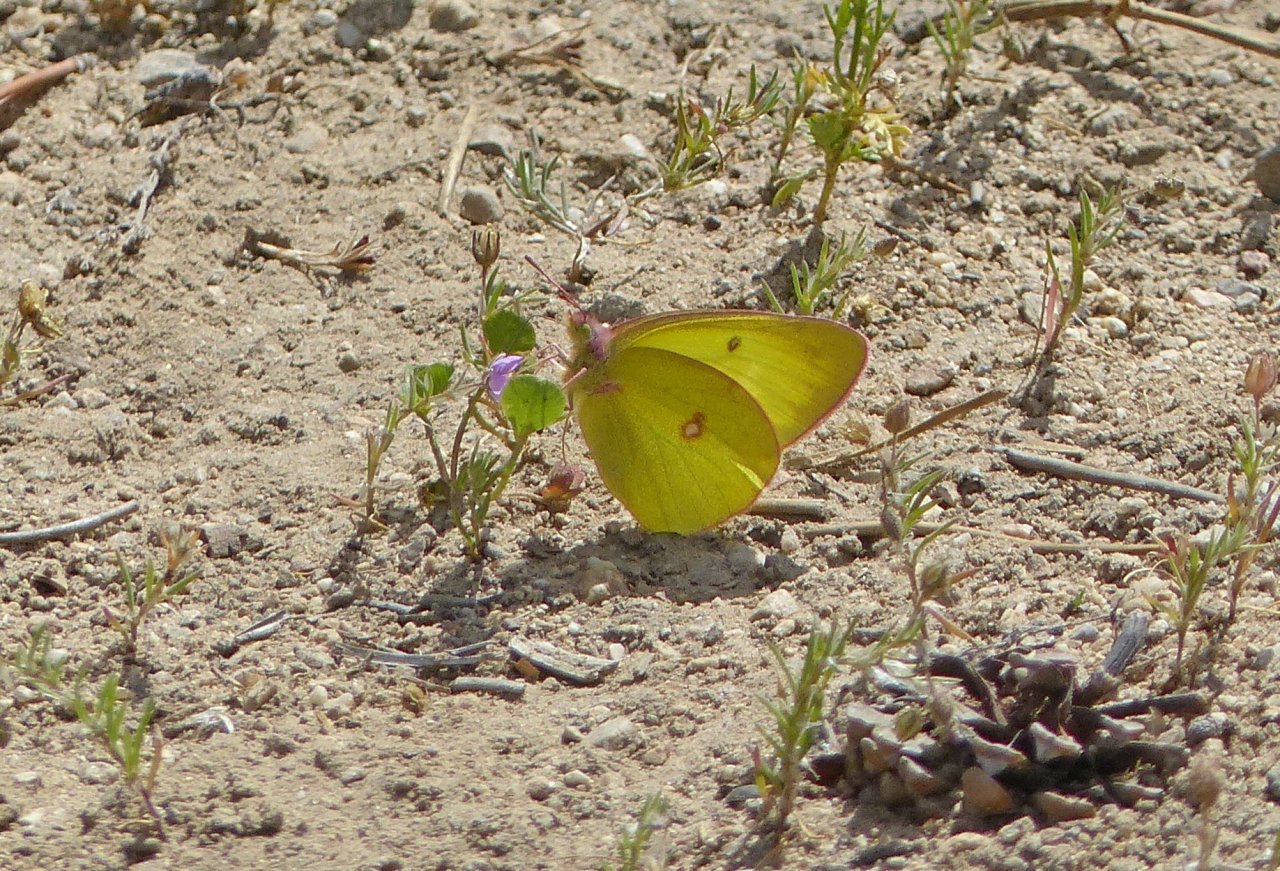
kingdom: Animalia
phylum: Arthropoda
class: Insecta
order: Lepidoptera
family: Pieridae
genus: Colias
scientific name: Colias philodice
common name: Clouded Sulphur
